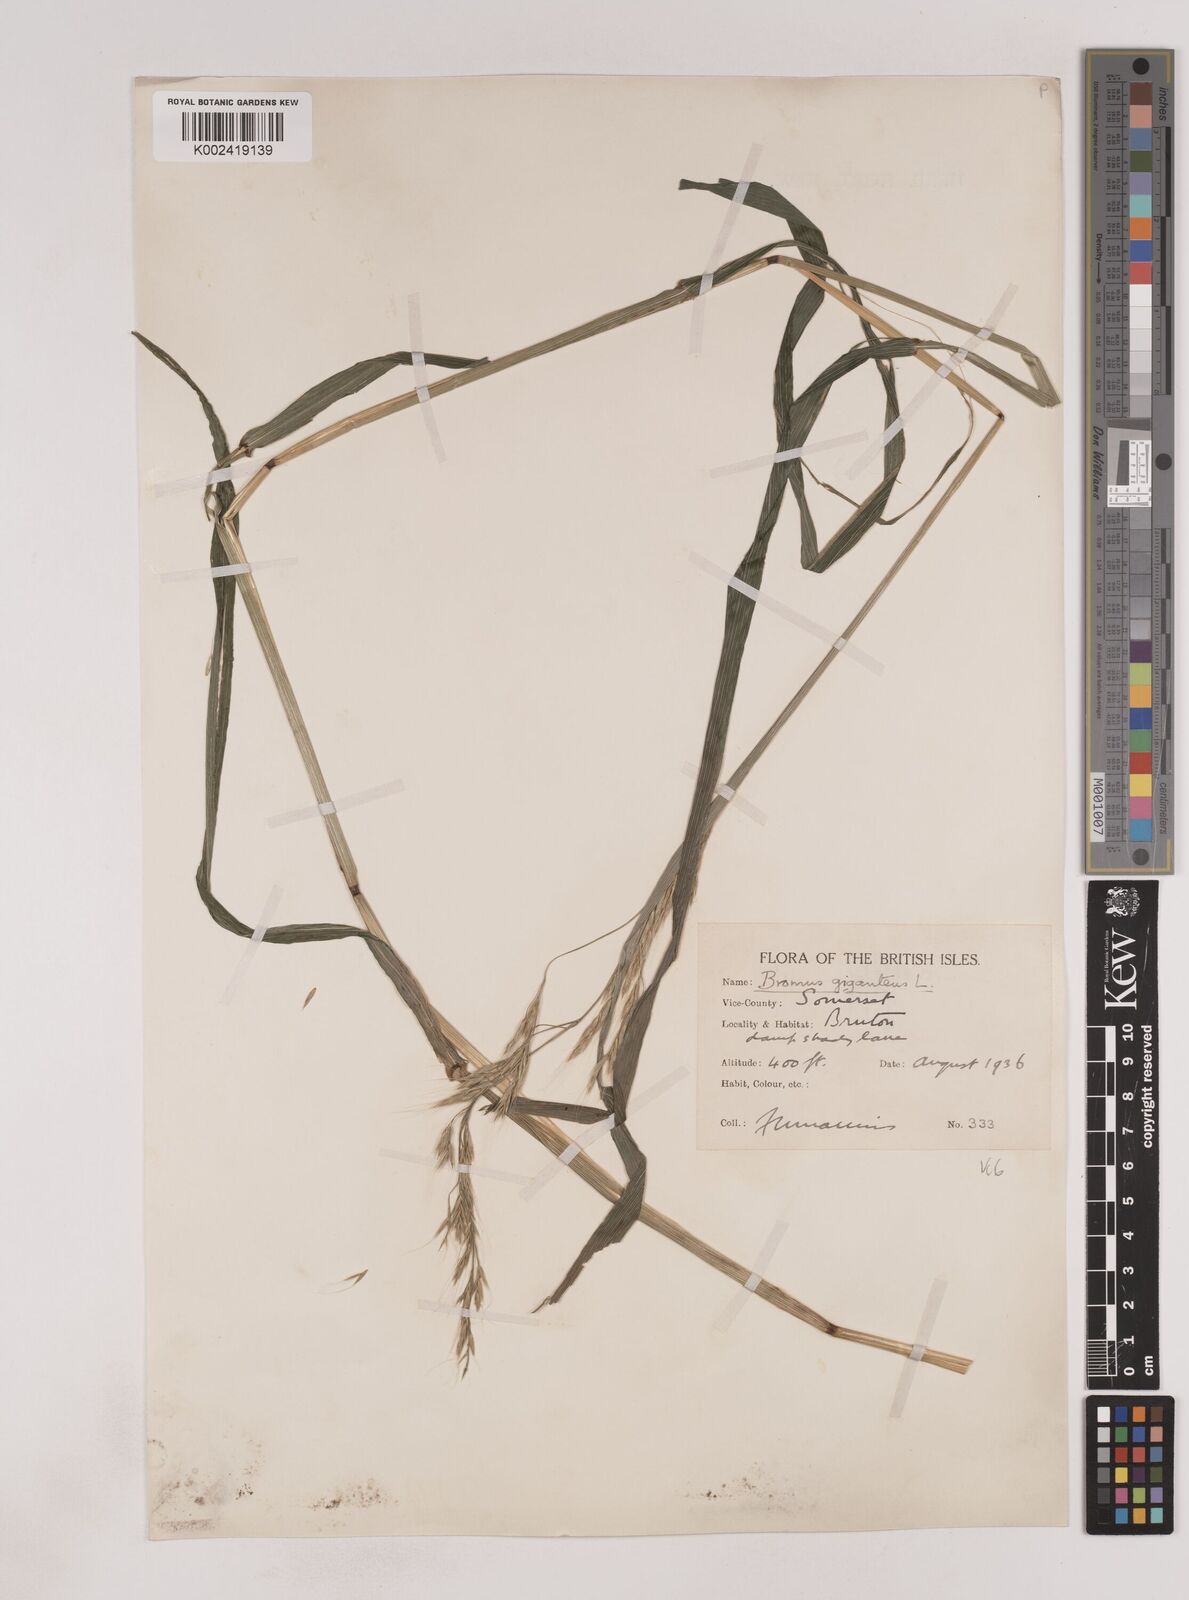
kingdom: Plantae
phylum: Tracheophyta
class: Liliopsida
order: Poales
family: Poaceae
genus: Lolium
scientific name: Lolium giganteum
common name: Giant fescue
